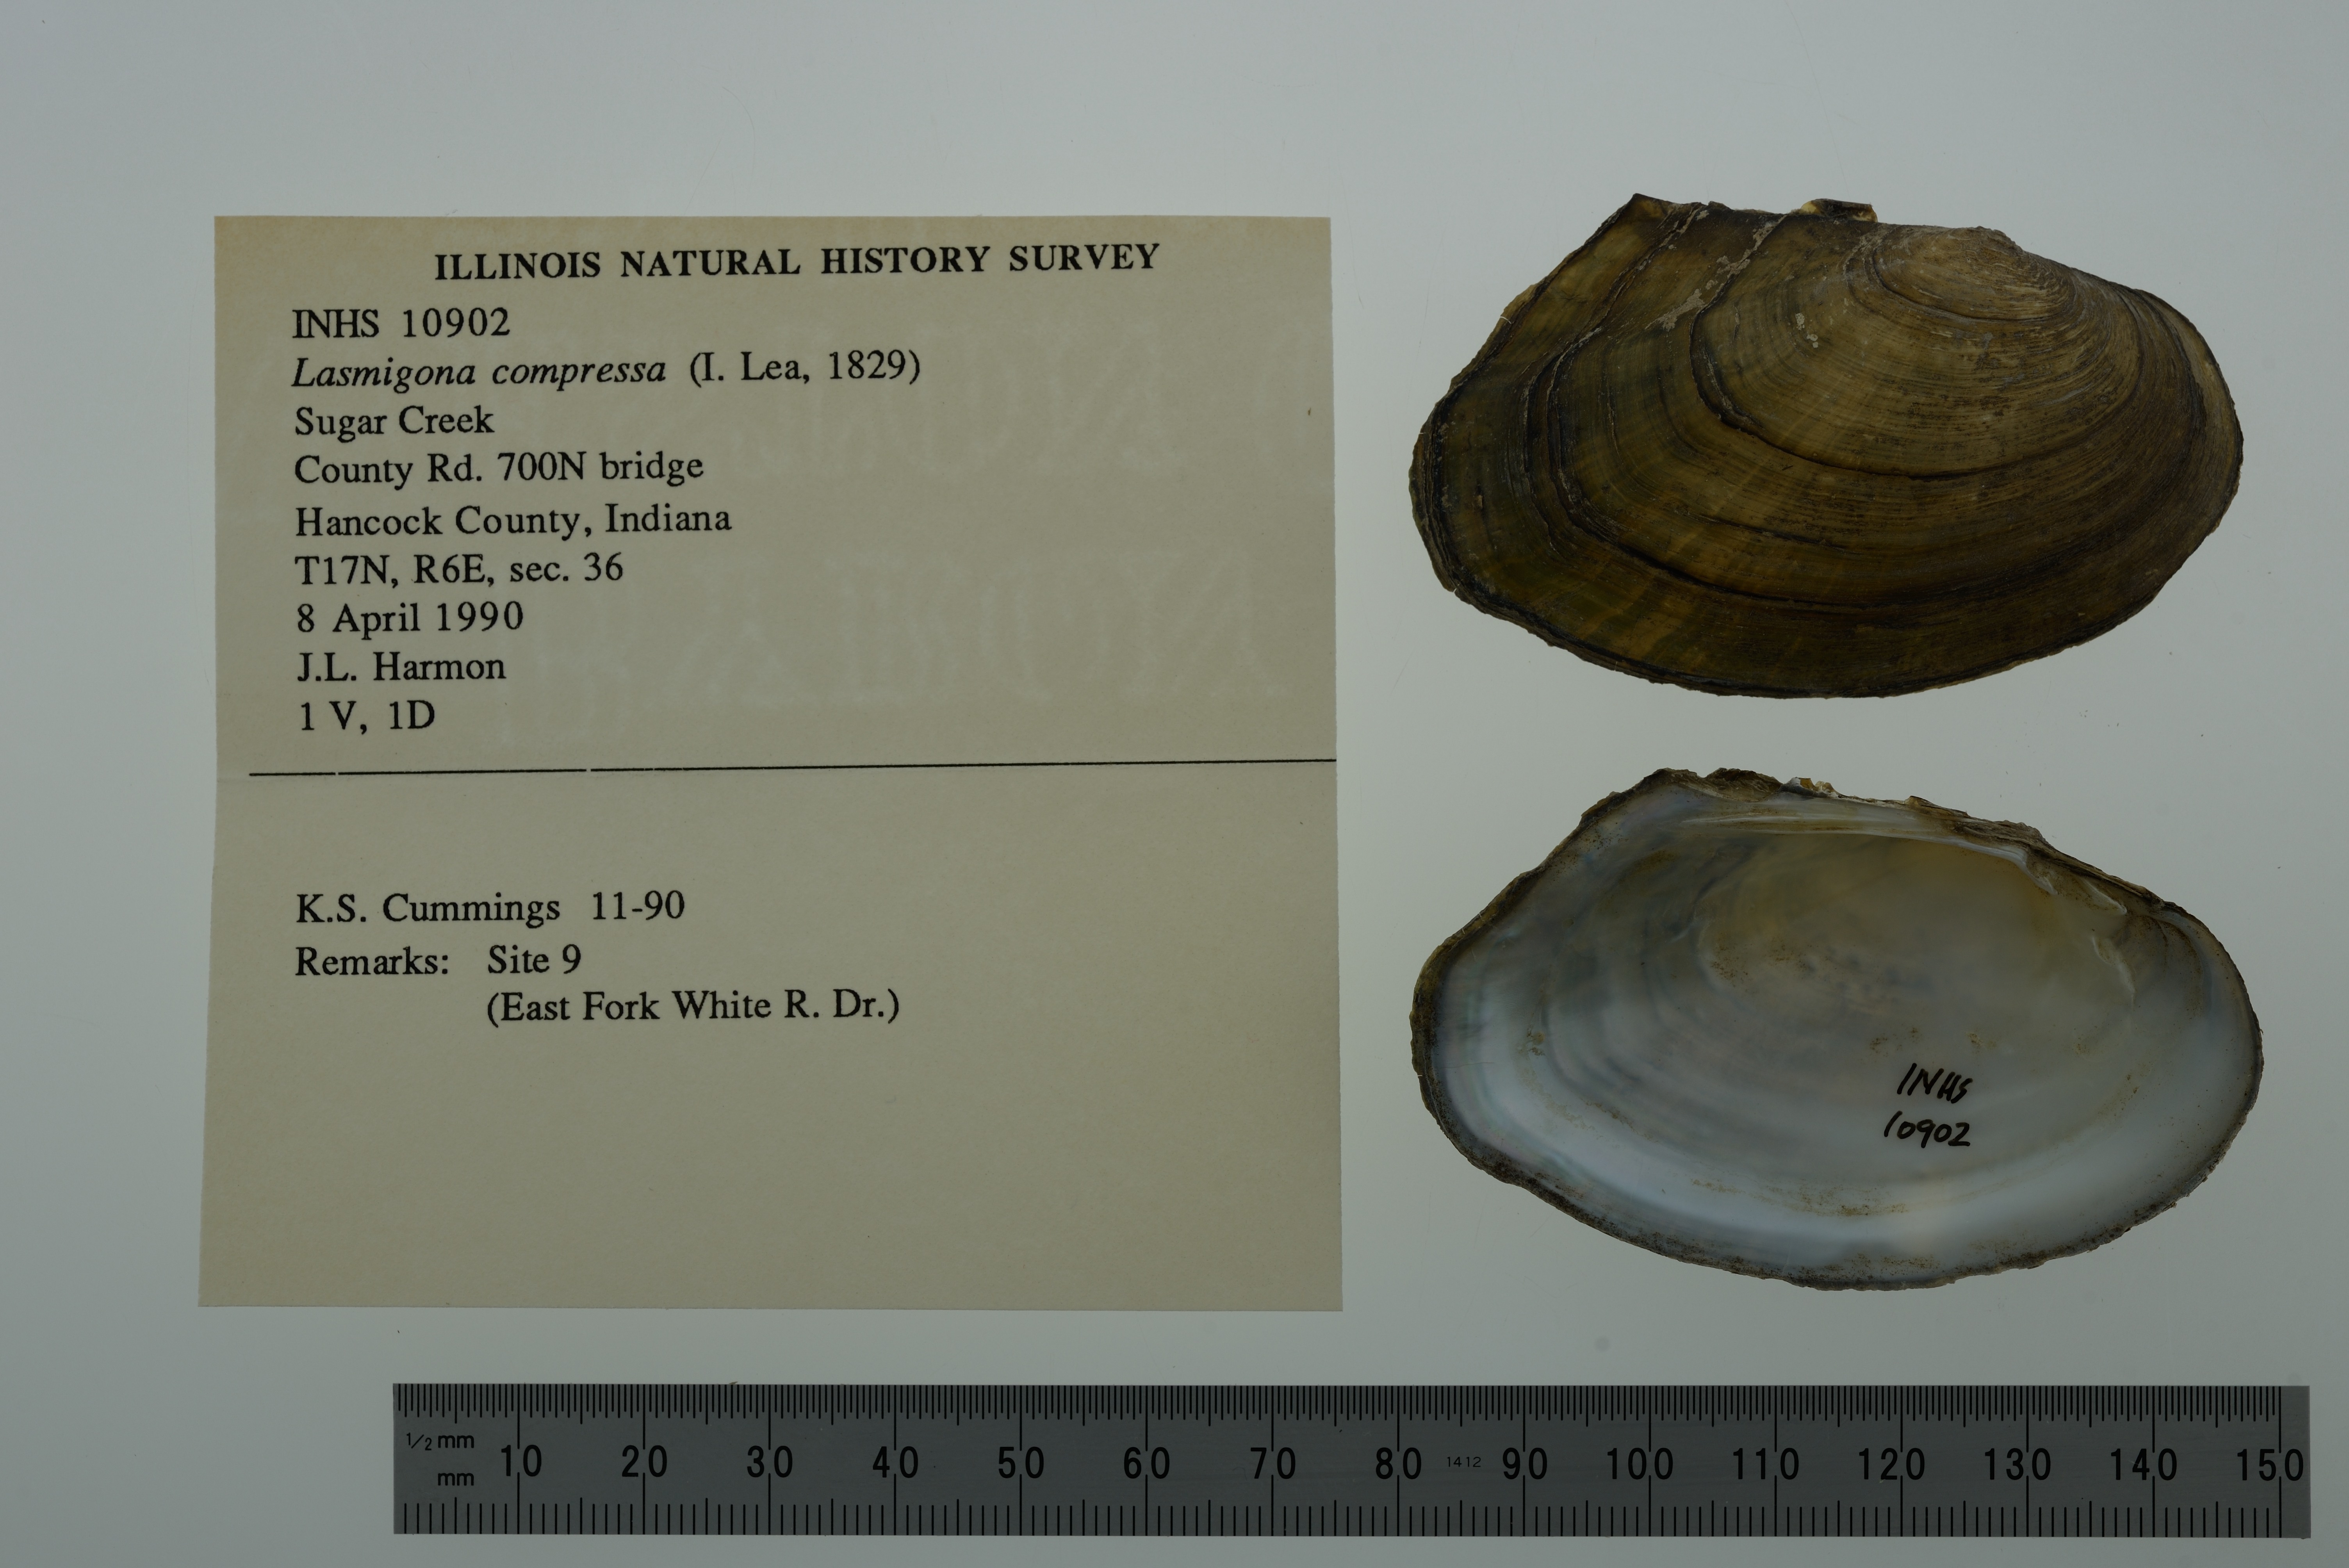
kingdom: Animalia
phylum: Mollusca
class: Bivalvia
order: Unionida
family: Unionidae
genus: Lasmigona
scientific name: Lasmigona compressa
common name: Creek heelsplitter
